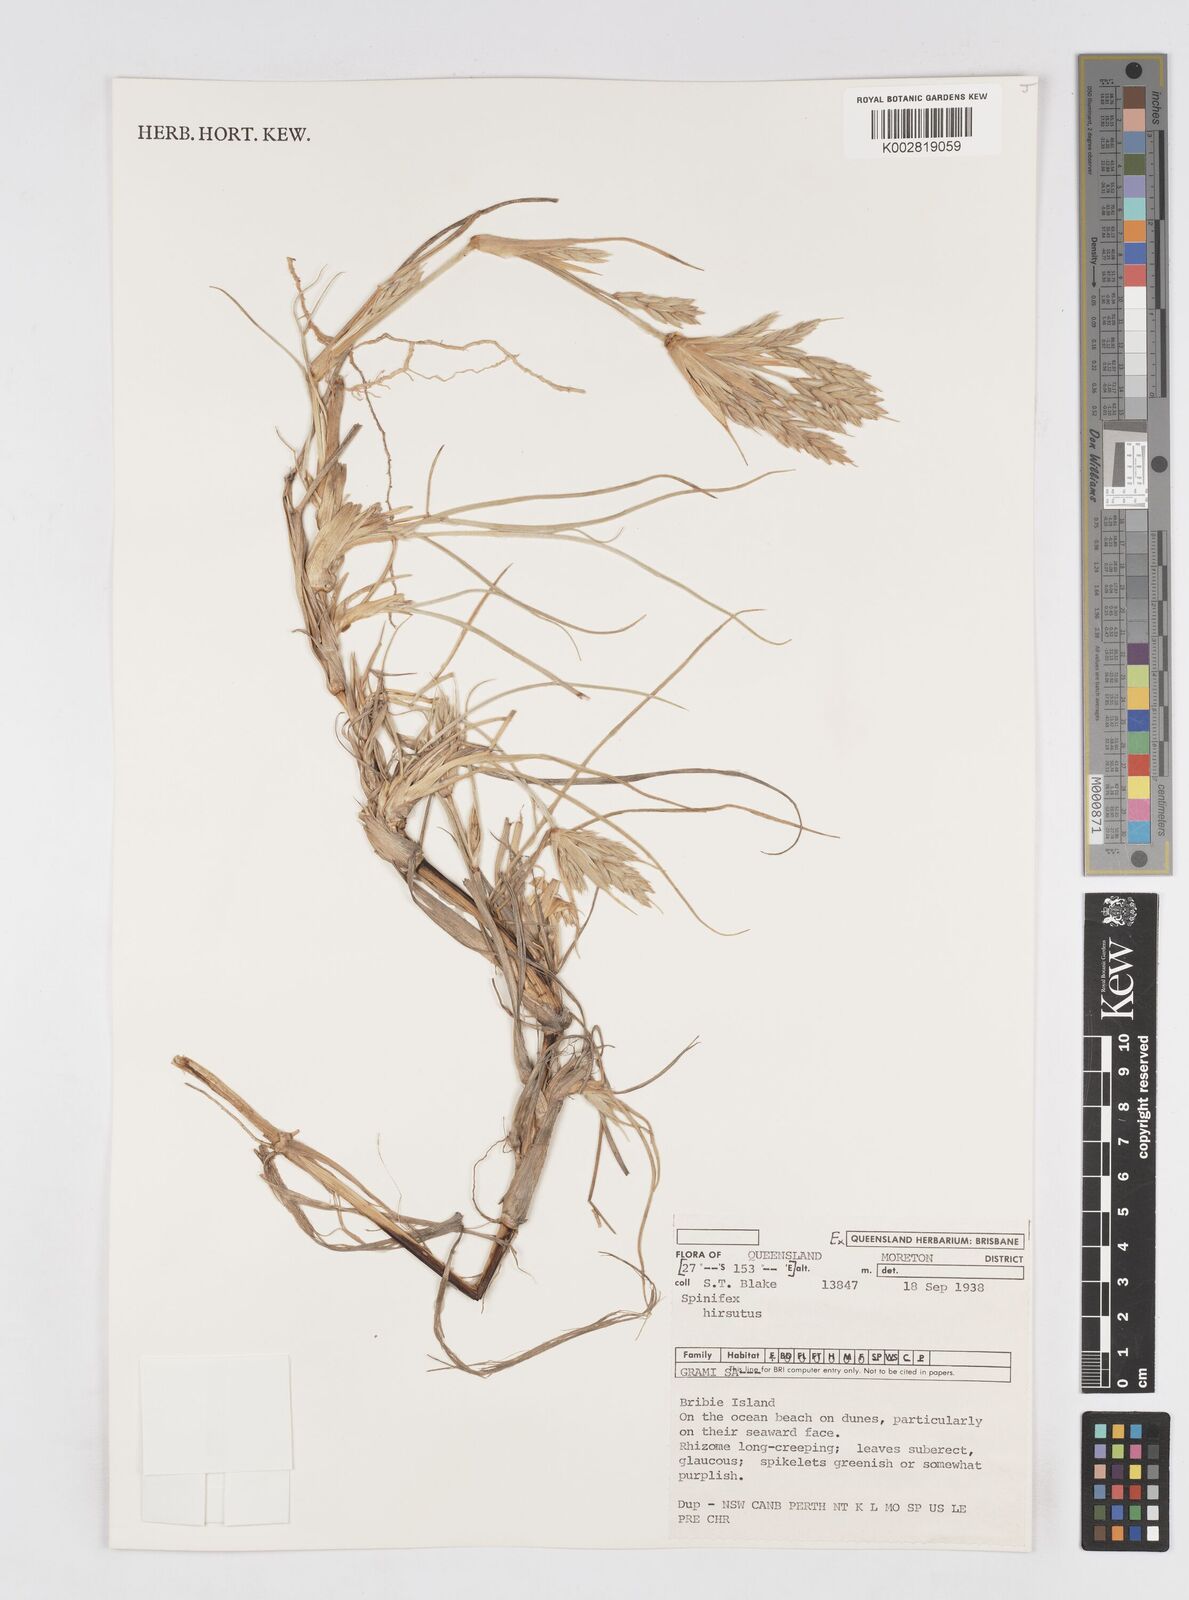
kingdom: Plantae
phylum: Tracheophyta
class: Liliopsida
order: Poales
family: Poaceae
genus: Spinifex
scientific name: Spinifex hirsutus
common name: Hairy spinifex
